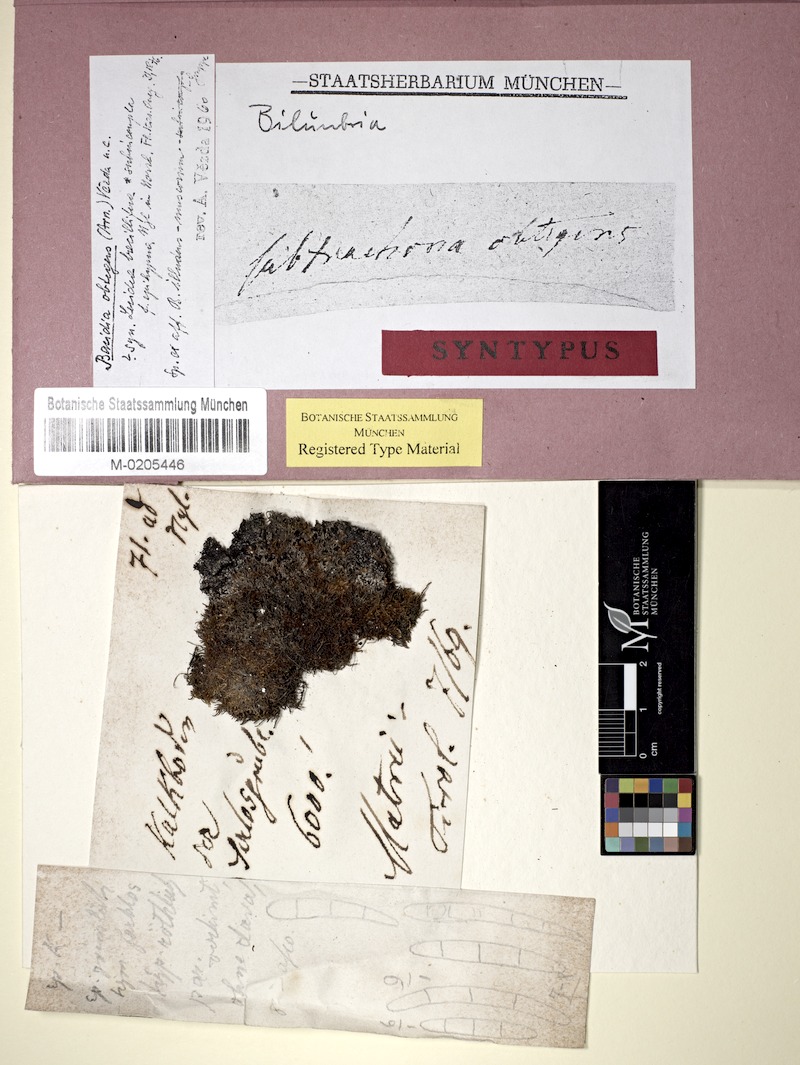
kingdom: Fungi
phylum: Ascomycota
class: Lecanoromycetes
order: Lecanorales
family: Ramalinaceae
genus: Bacidia
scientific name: Bacidia
